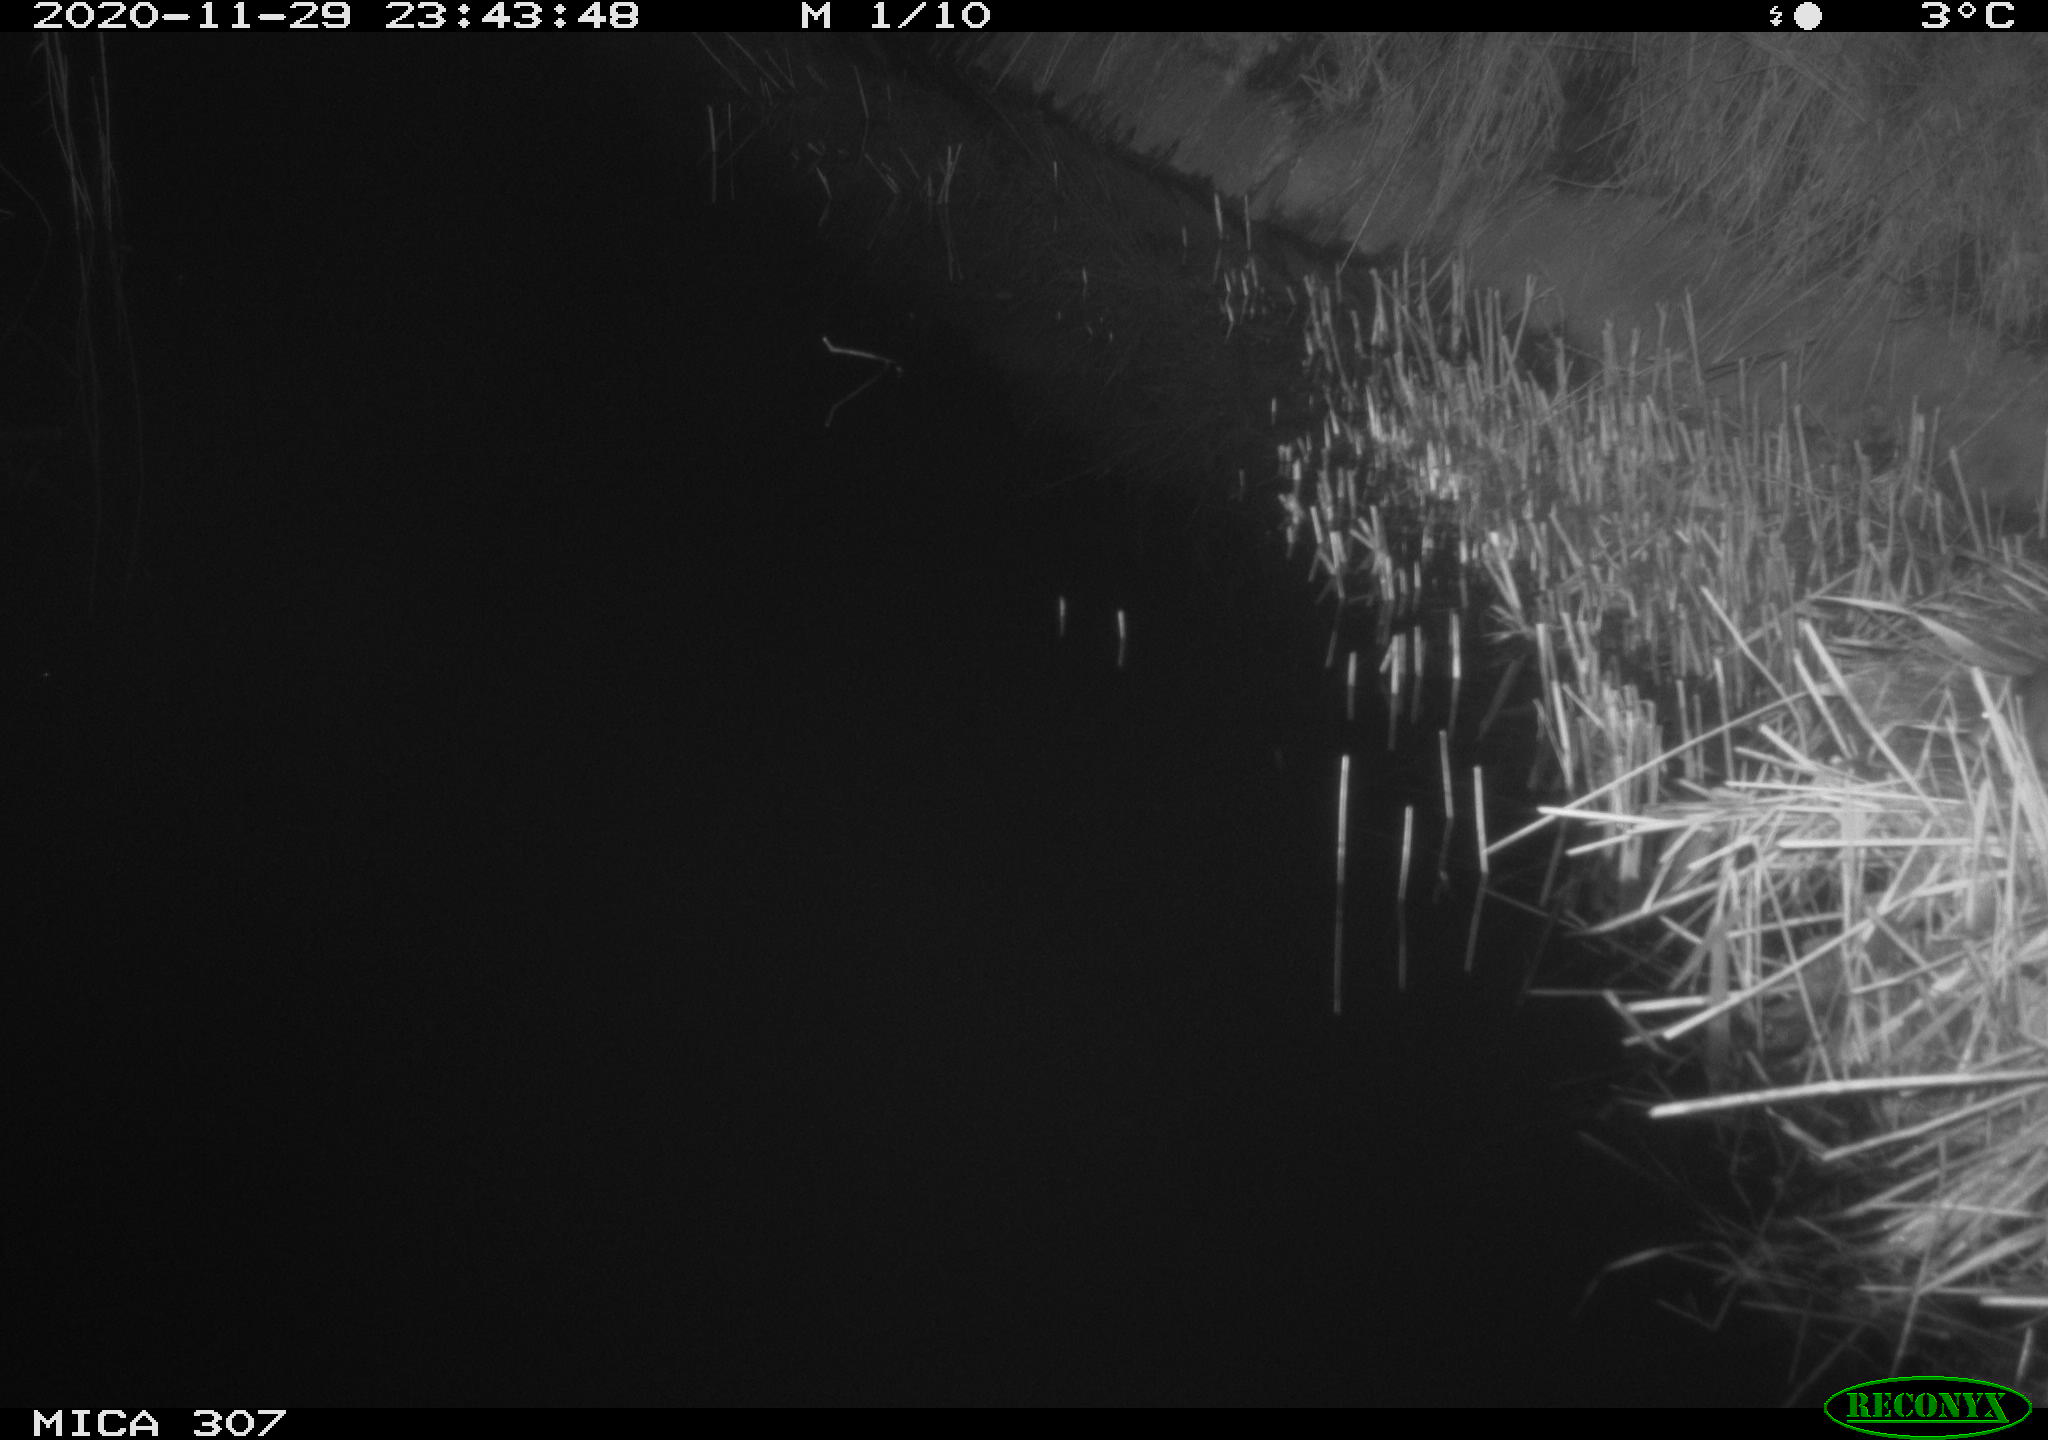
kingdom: Animalia
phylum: Chordata
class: Mammalia
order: Rodentia
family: Muridae
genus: Rattus
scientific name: Rattus norvegicus
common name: Brown rat
